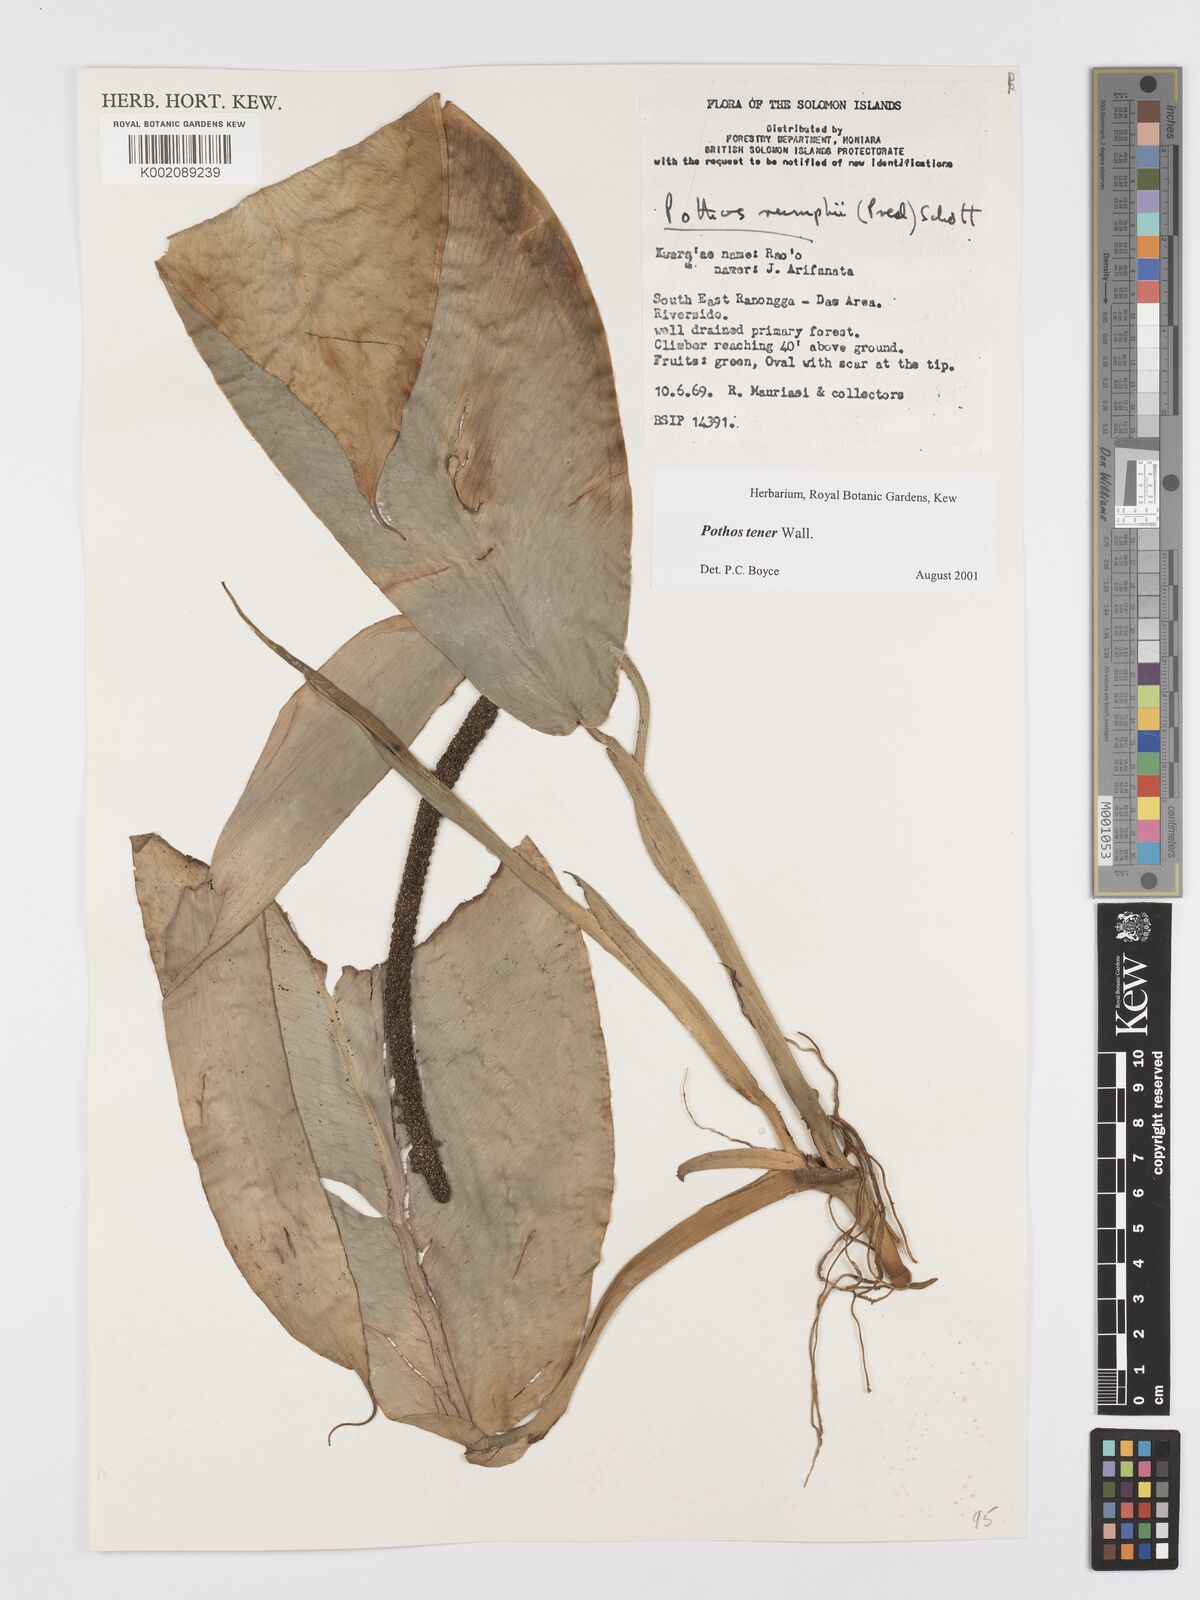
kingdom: Plantae
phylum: Tracheophyta
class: Liliopsida
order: Alismatales
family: Araceae
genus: Pothos
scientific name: Pothos tener
